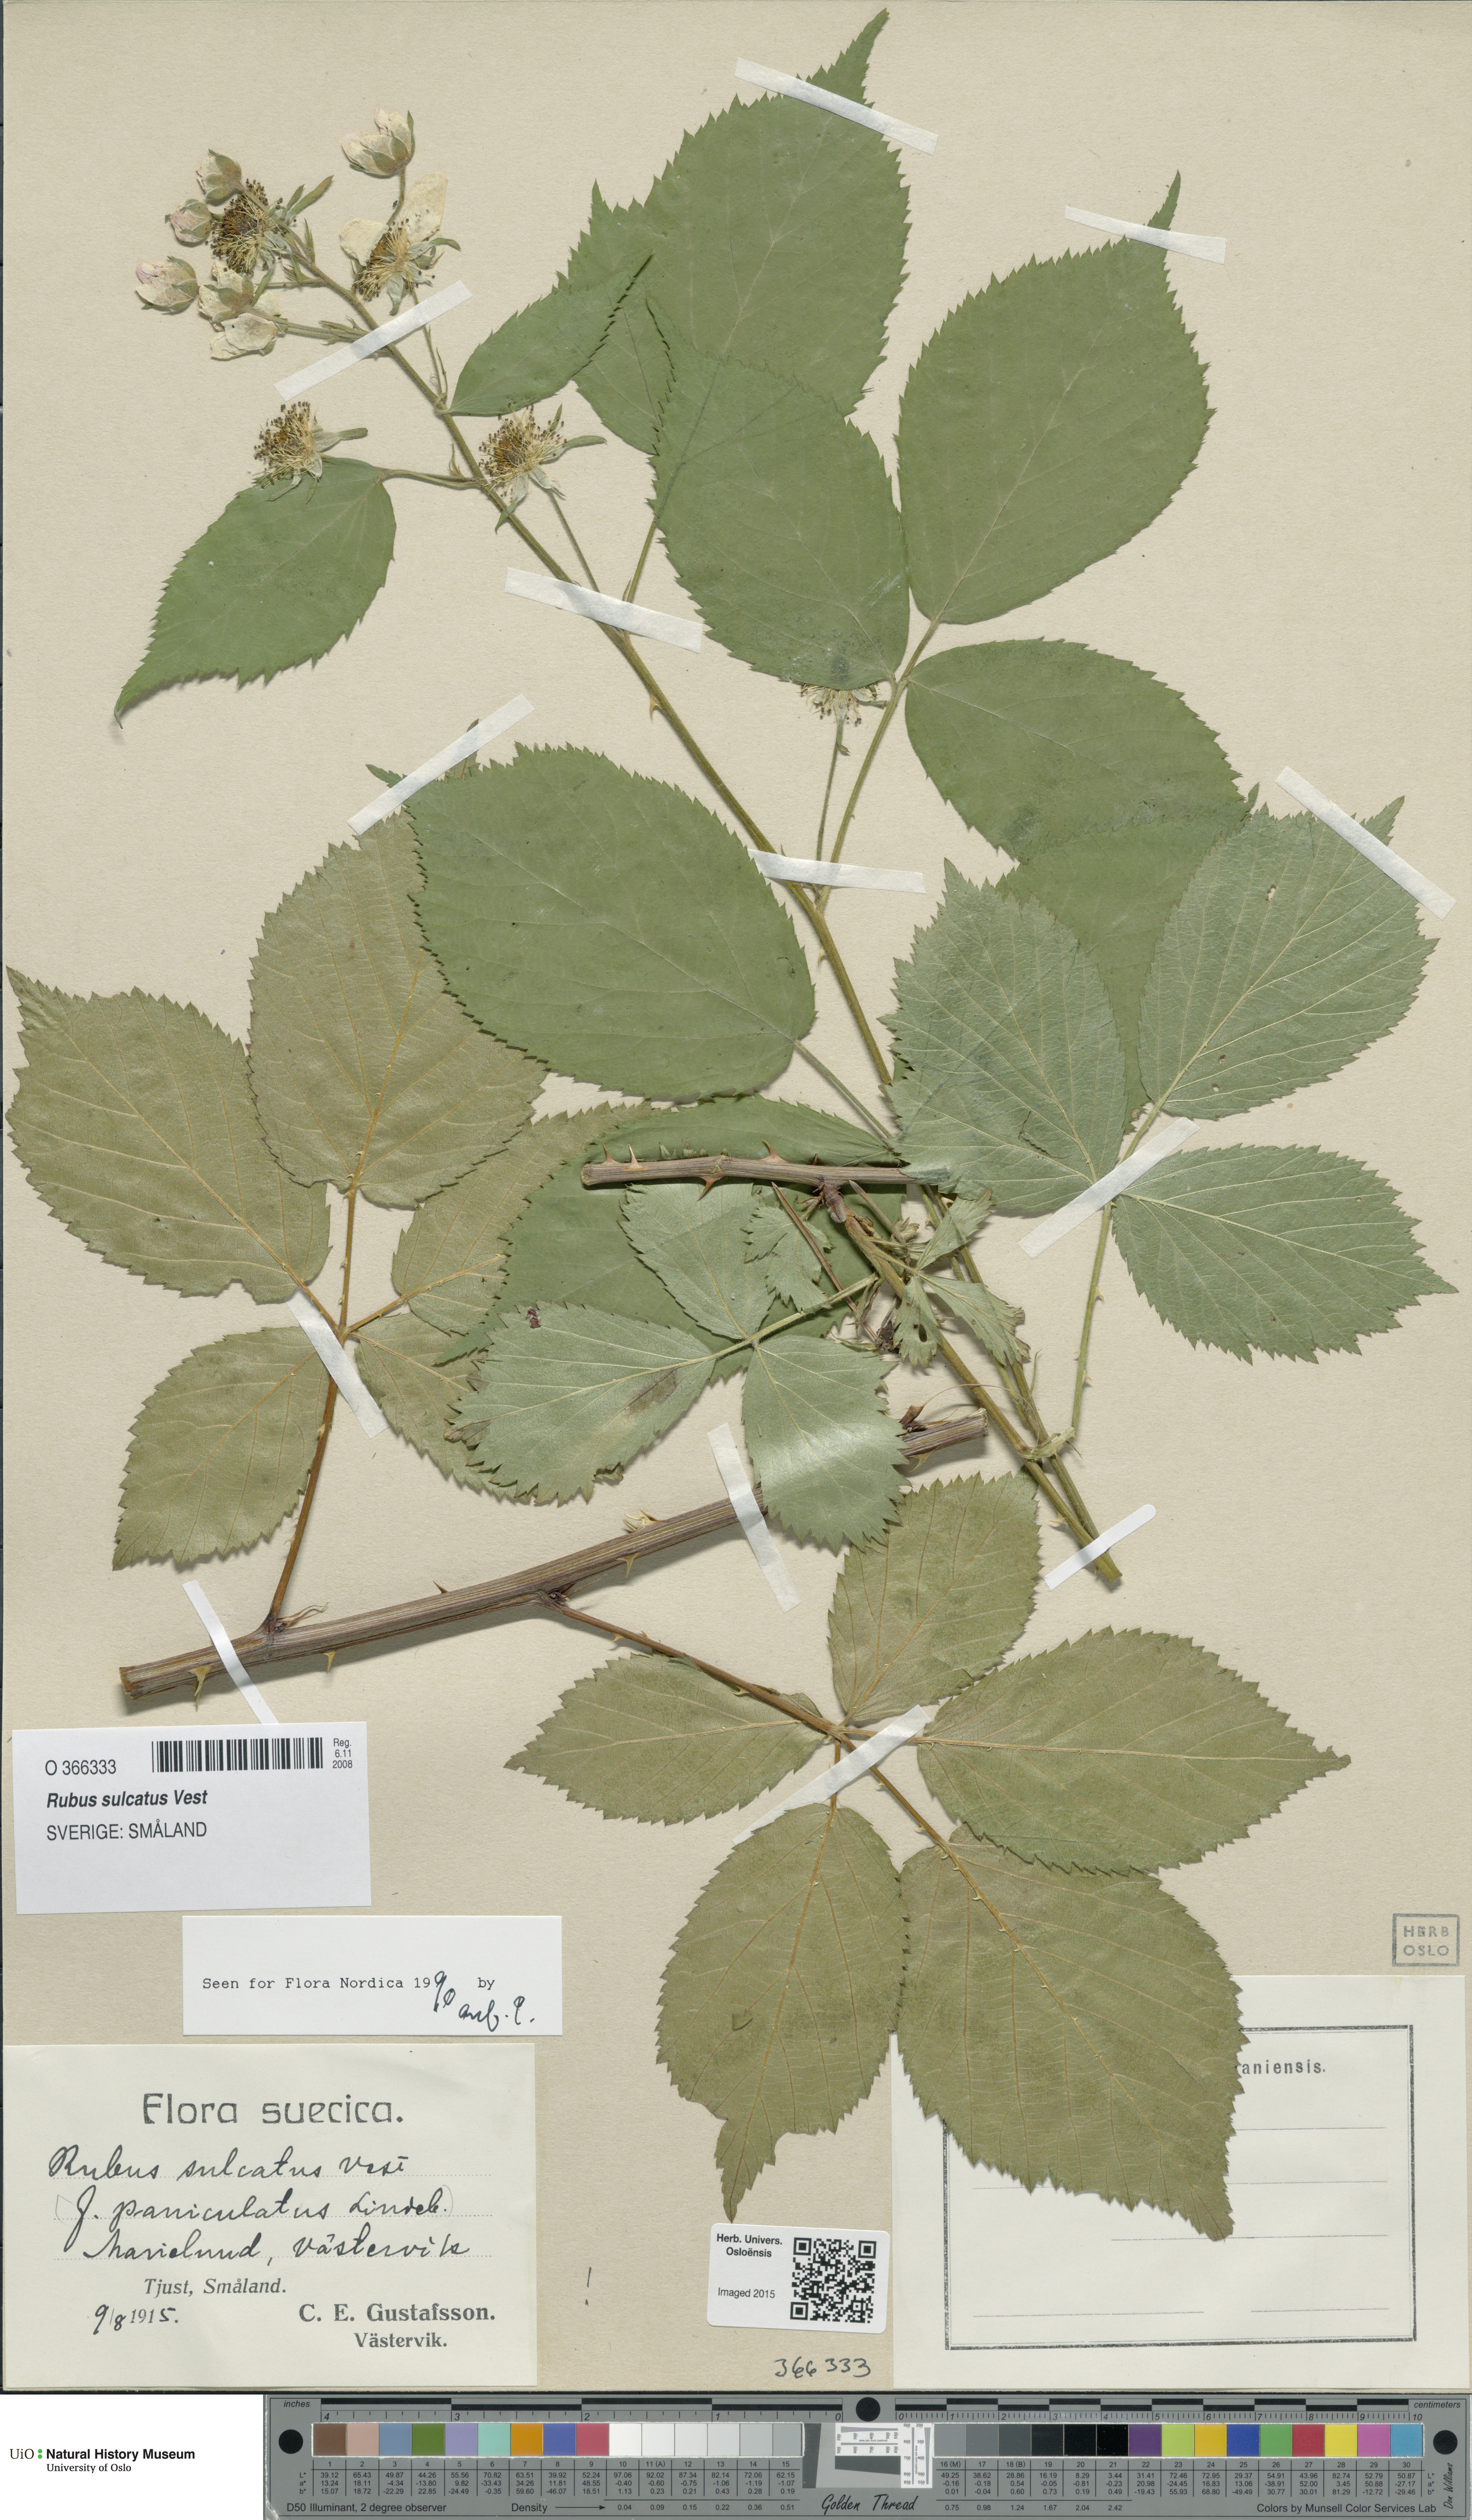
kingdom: Plantae
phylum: Tracheophyta
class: Magnoliopsida
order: Rosales
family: Rosaceae
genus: Rubus
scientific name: Rubus sulcatus
